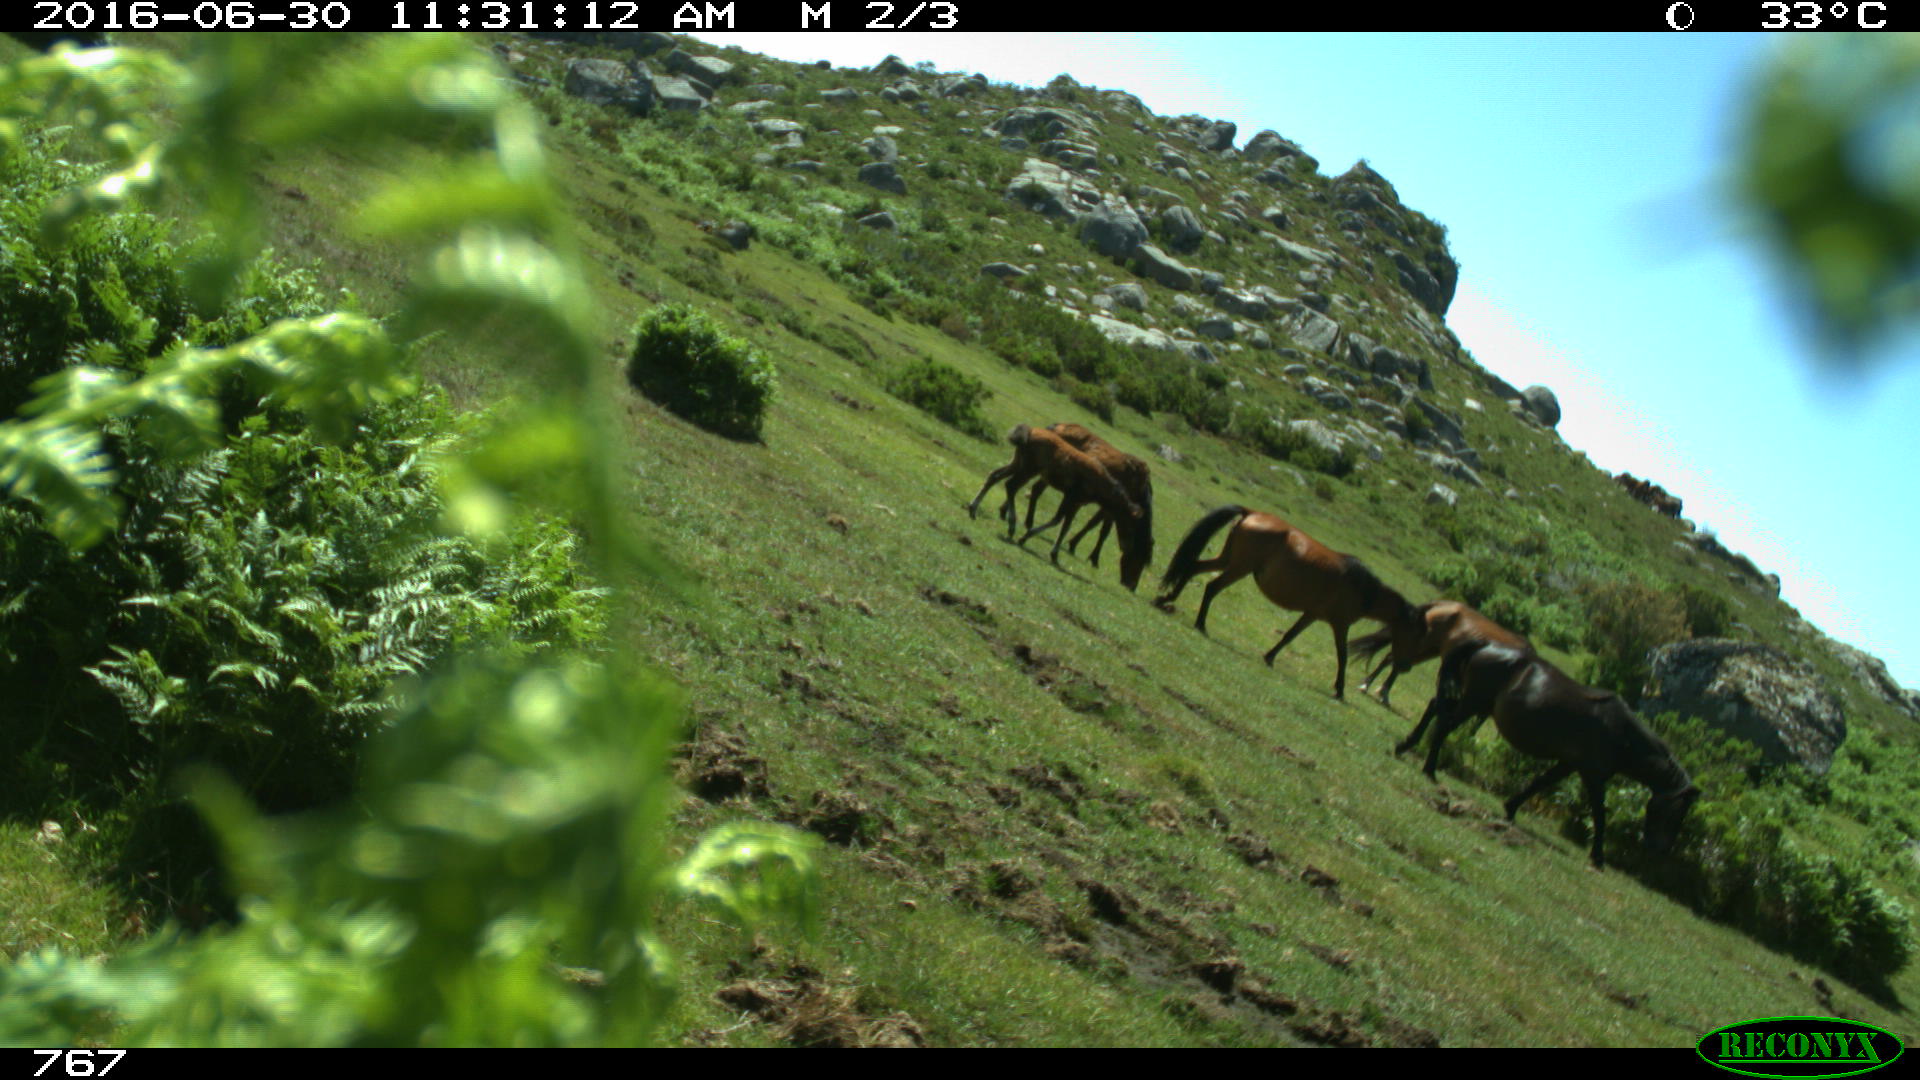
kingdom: Animalia
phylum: Chordata
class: Mammalia
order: Perissodactyla
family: Equidae
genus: Equus
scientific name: Equus caballus
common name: Horse
